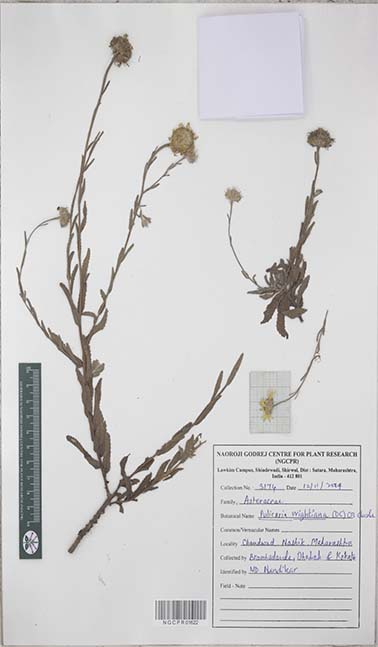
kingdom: Plantae
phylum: Tracheophyta
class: Magnoliopsida
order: Asterales
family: Asteraceae
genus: Pulicaria
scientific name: Pulicaria wightiana
